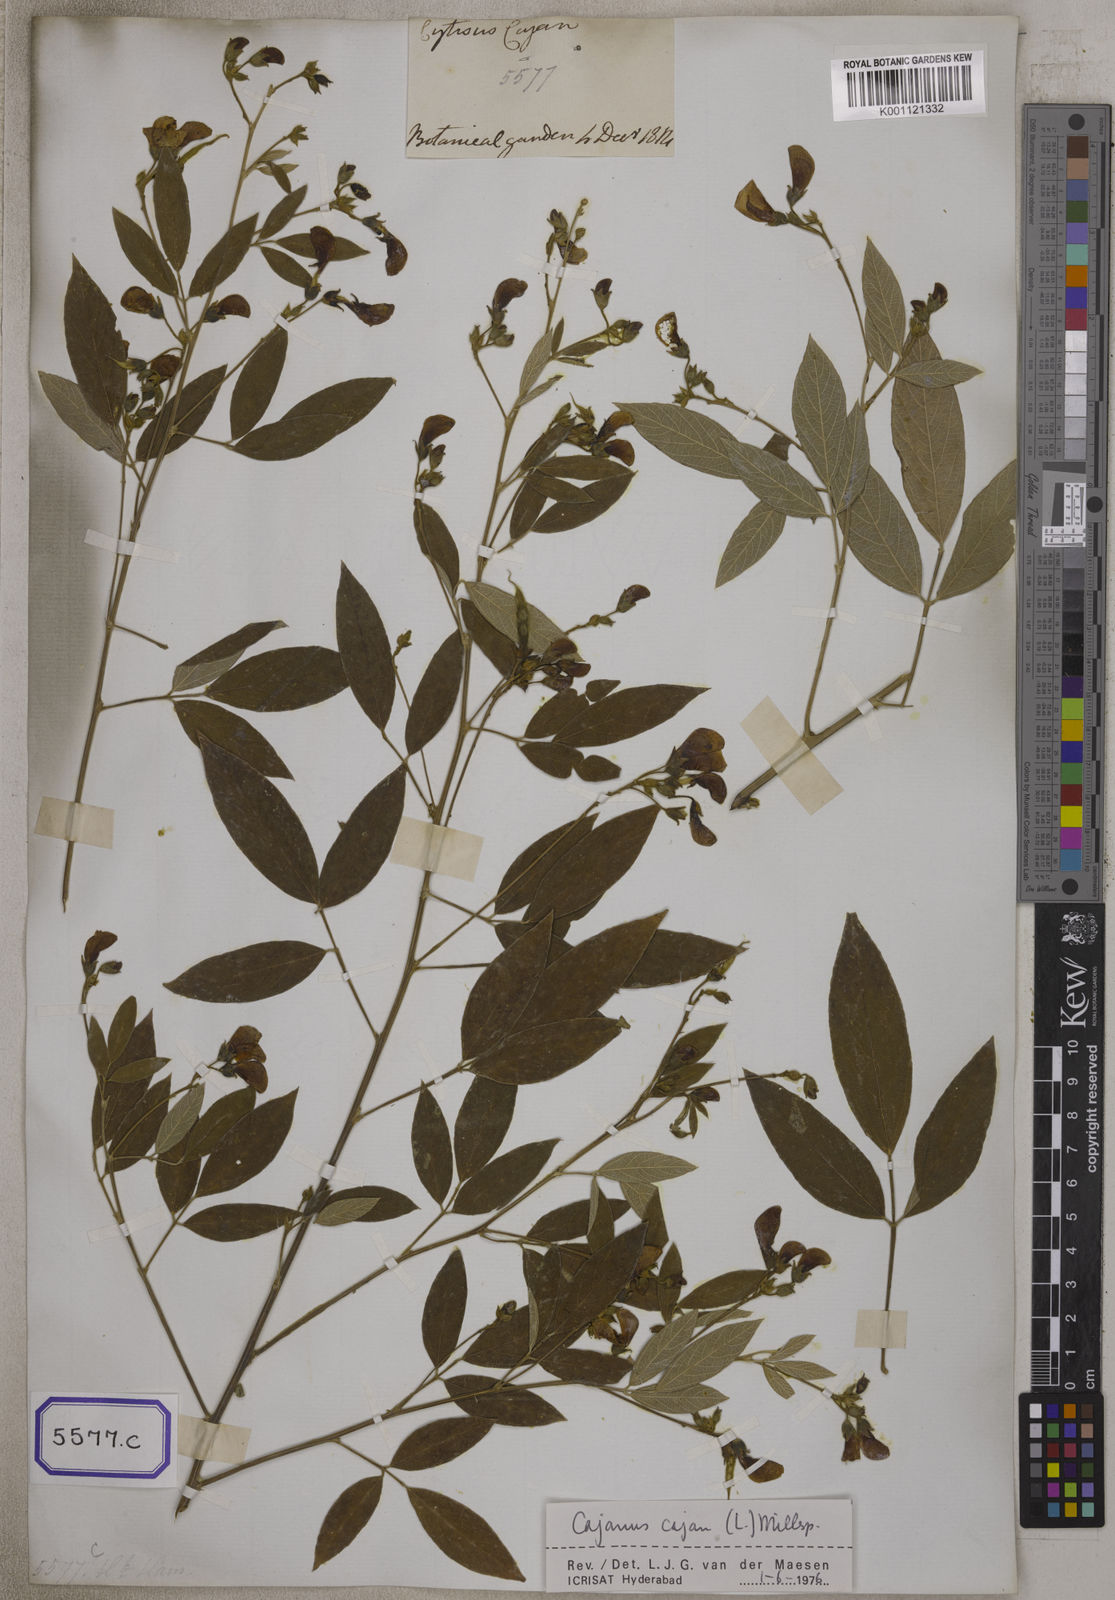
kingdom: Plantae
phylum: Tracheophyta
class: Magnoliopsida
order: Fabales
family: Fabaceae
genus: Cajanus
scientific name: Cajanus cajan
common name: Pigeonpea
